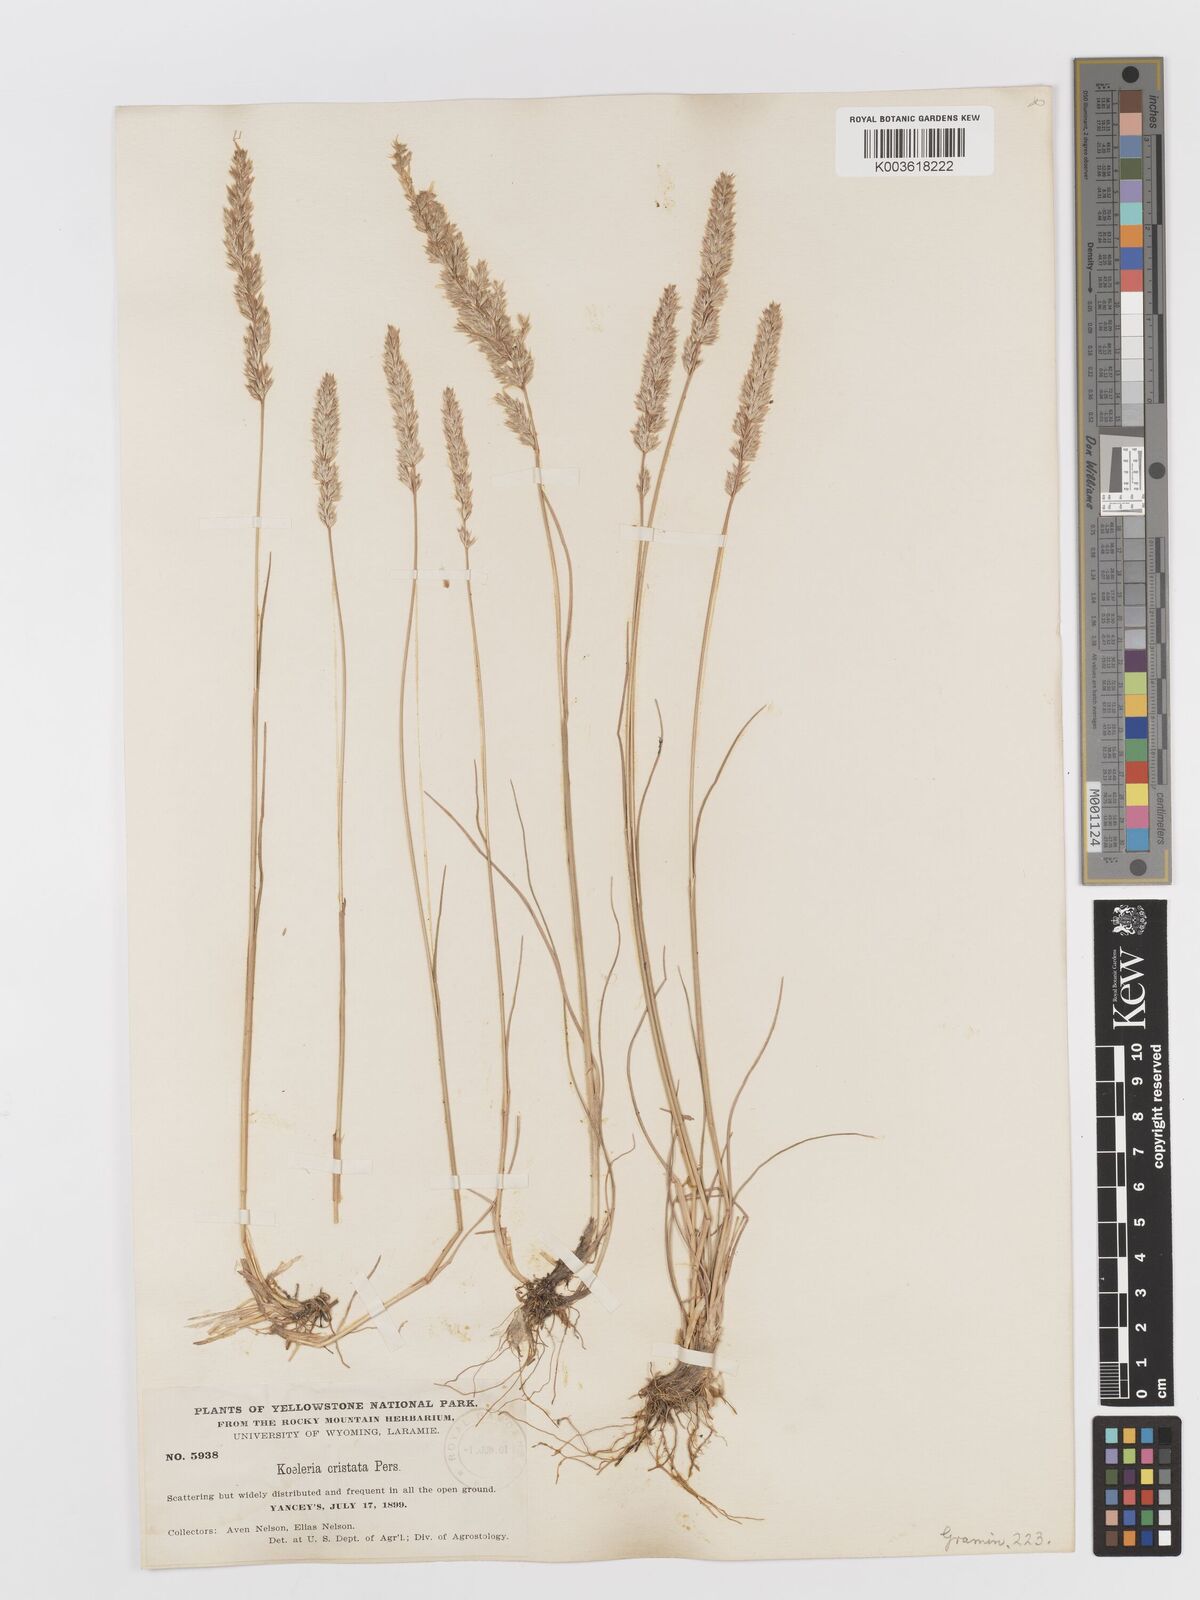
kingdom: Plantae
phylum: Tracheophyta
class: Liliopsida
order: Poales
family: Poaceae
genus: Koeleria
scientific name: Koeleria macrantha
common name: Crested hair-grass
